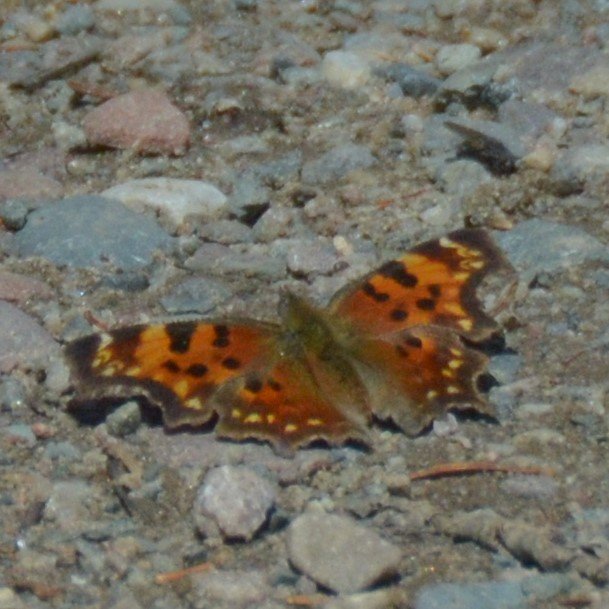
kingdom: Animalia
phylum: Arthropoda
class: Insecta
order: Lepidoptera
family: Nymphalidae
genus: Polygonia
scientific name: Polygonia faunus
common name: Green Comma
